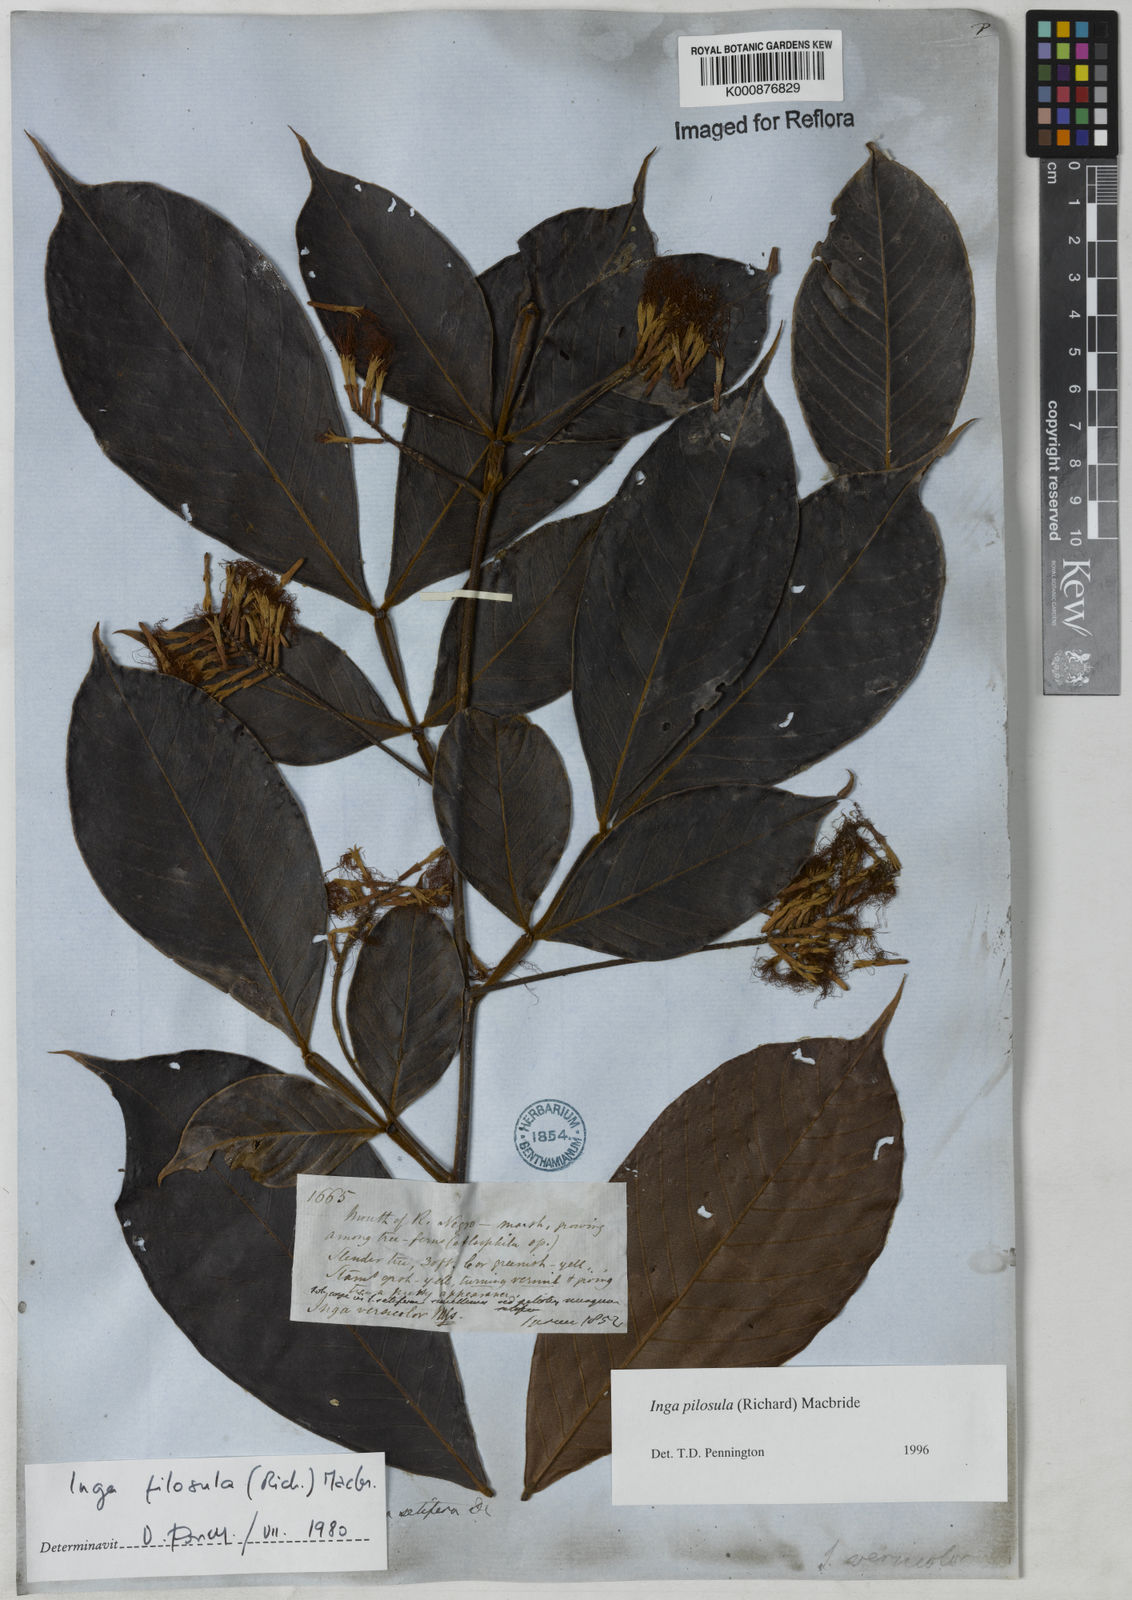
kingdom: Plantae
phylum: Tracheophyta
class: Magnoliopsida
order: Fabales
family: Fabaceae
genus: Inga
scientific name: Inga pilosula
